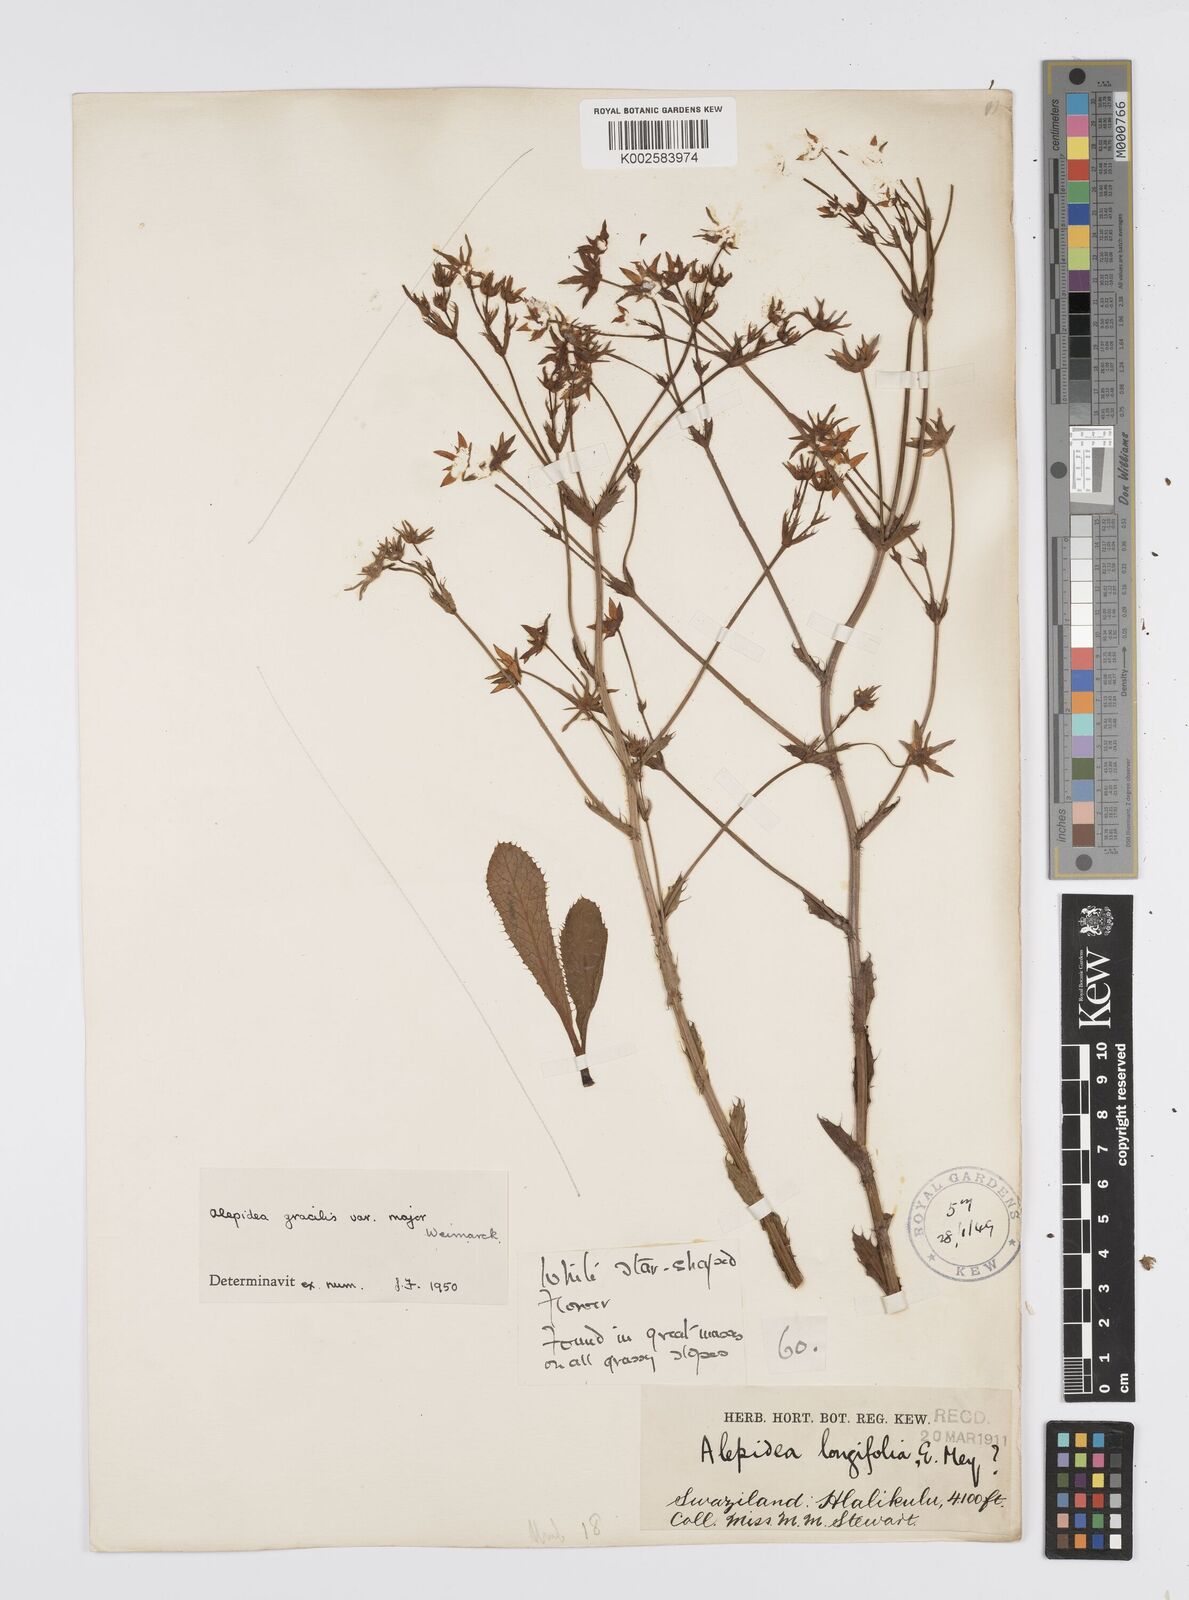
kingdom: Plantae
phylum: Tracheophyta
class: Magnoliopsida
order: Apiales
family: Apiaceae
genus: Alepidea
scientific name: Alepidea
